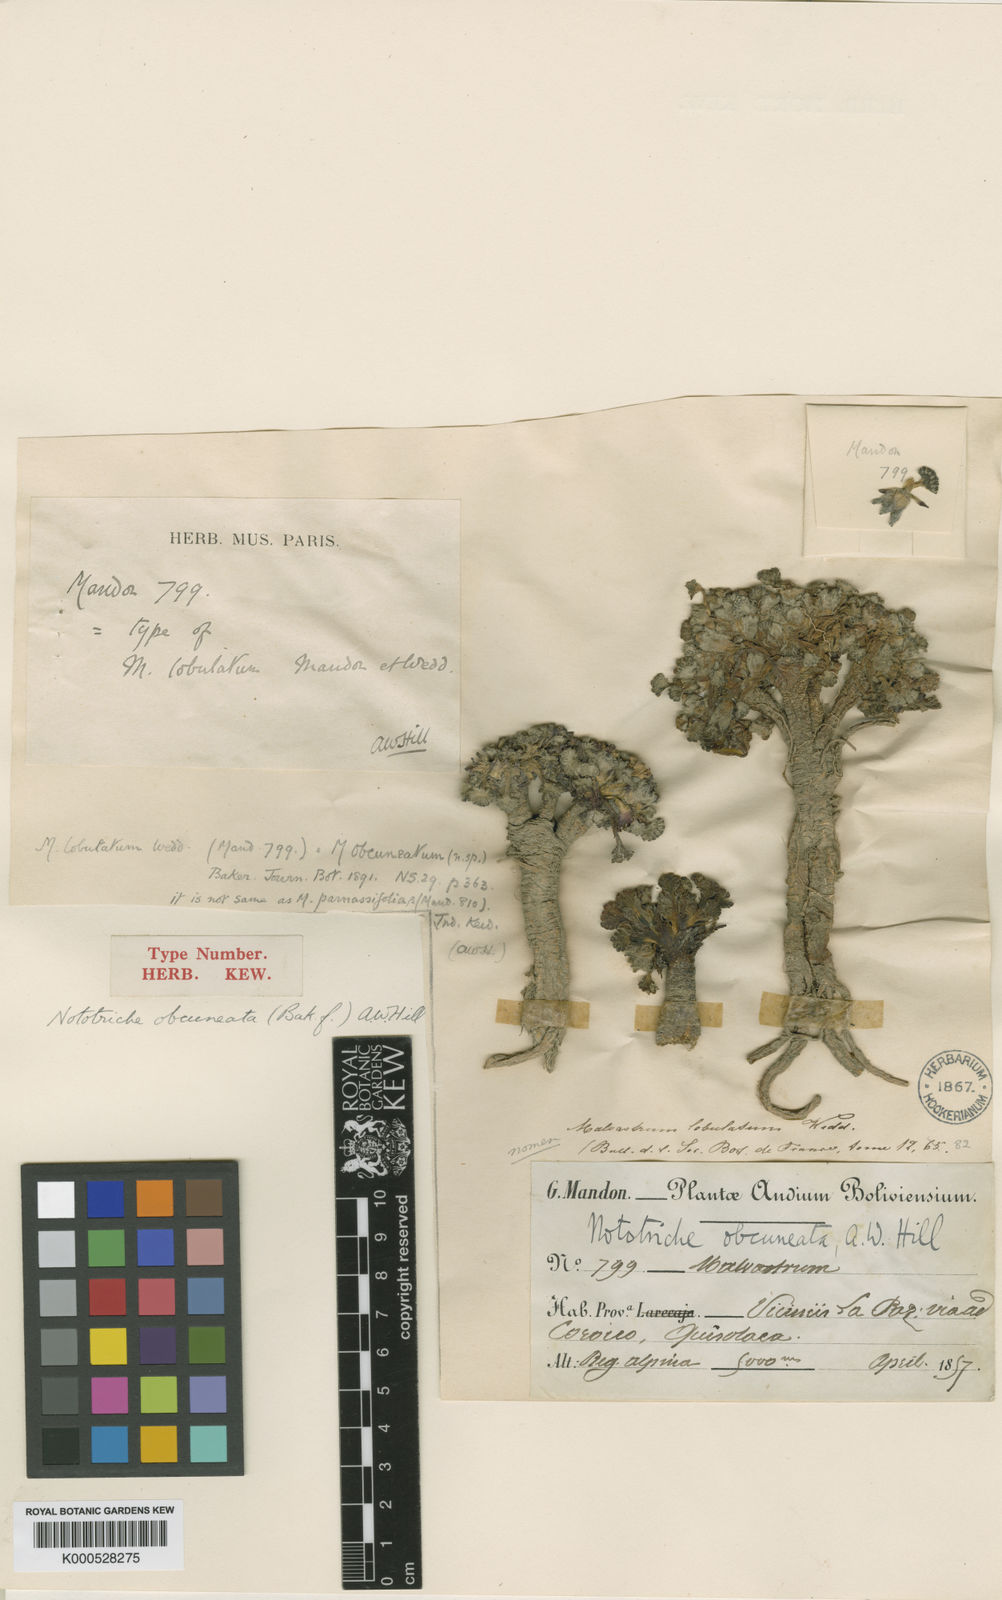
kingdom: Plantae
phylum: Tracheophyta
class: Magnoliopsida
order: Malvales
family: Malvaceae
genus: Nototriche
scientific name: Nototriche obcuneata
